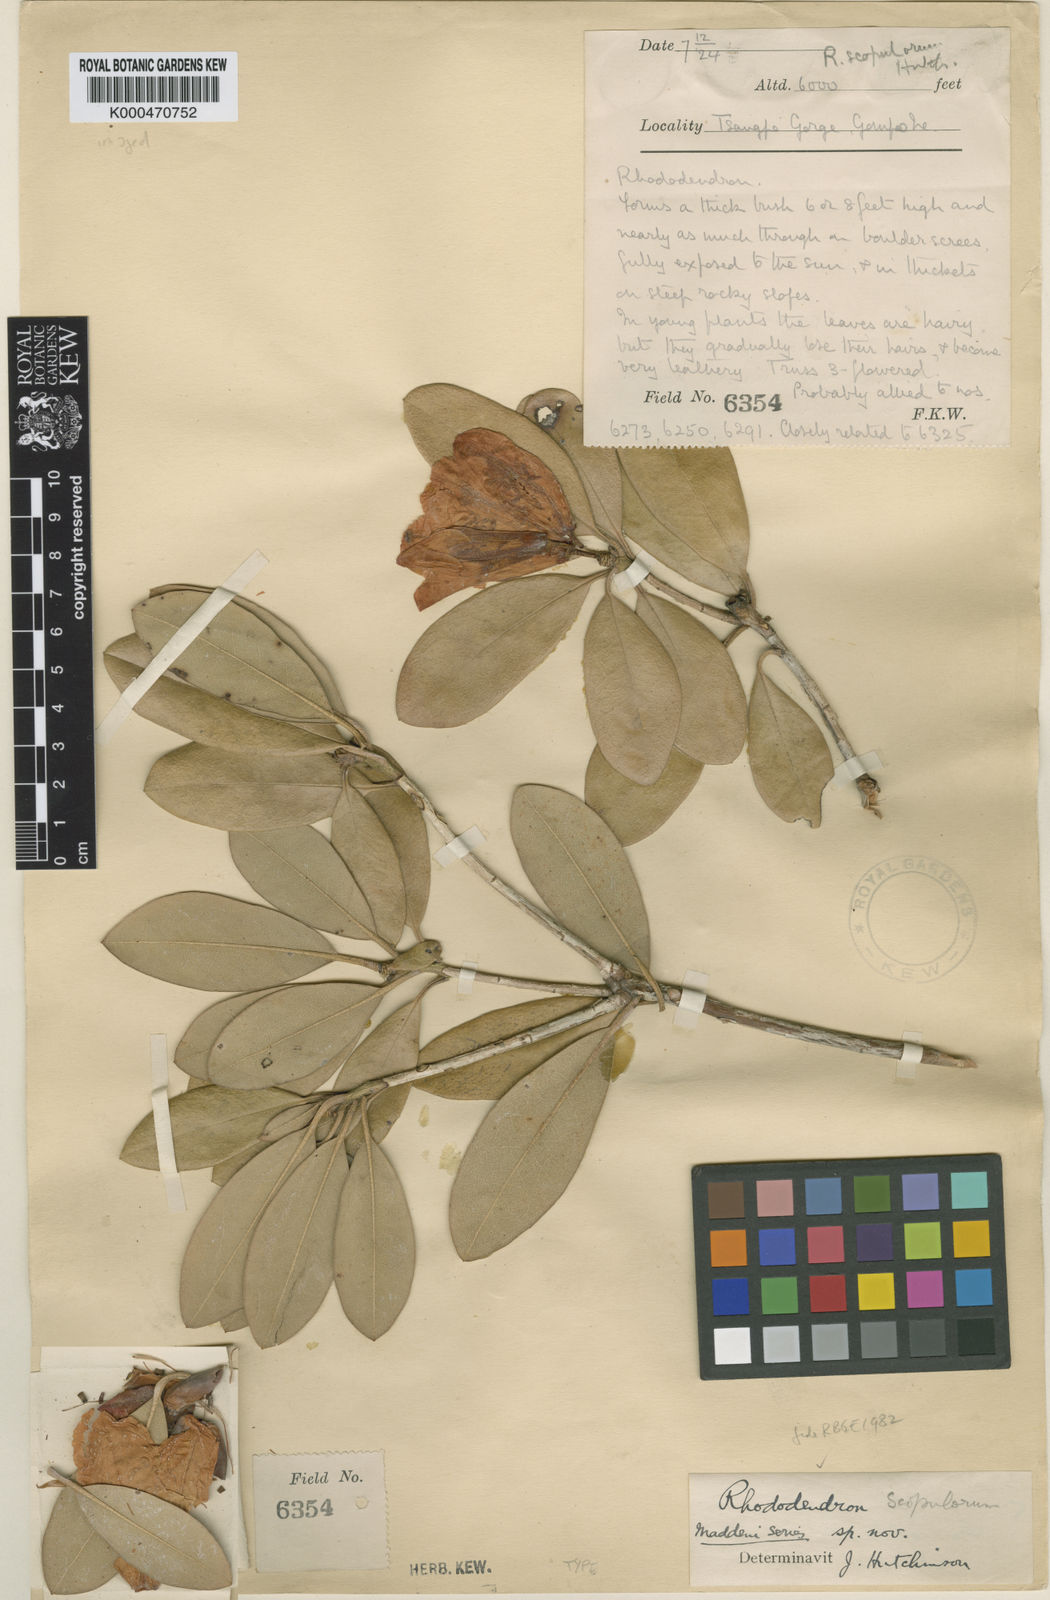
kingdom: Plantae
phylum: Tracheophyta
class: Magnoliopsida
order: Ericales
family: Ericaceae
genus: Rhododendron
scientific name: Rhododendron scopulorum
